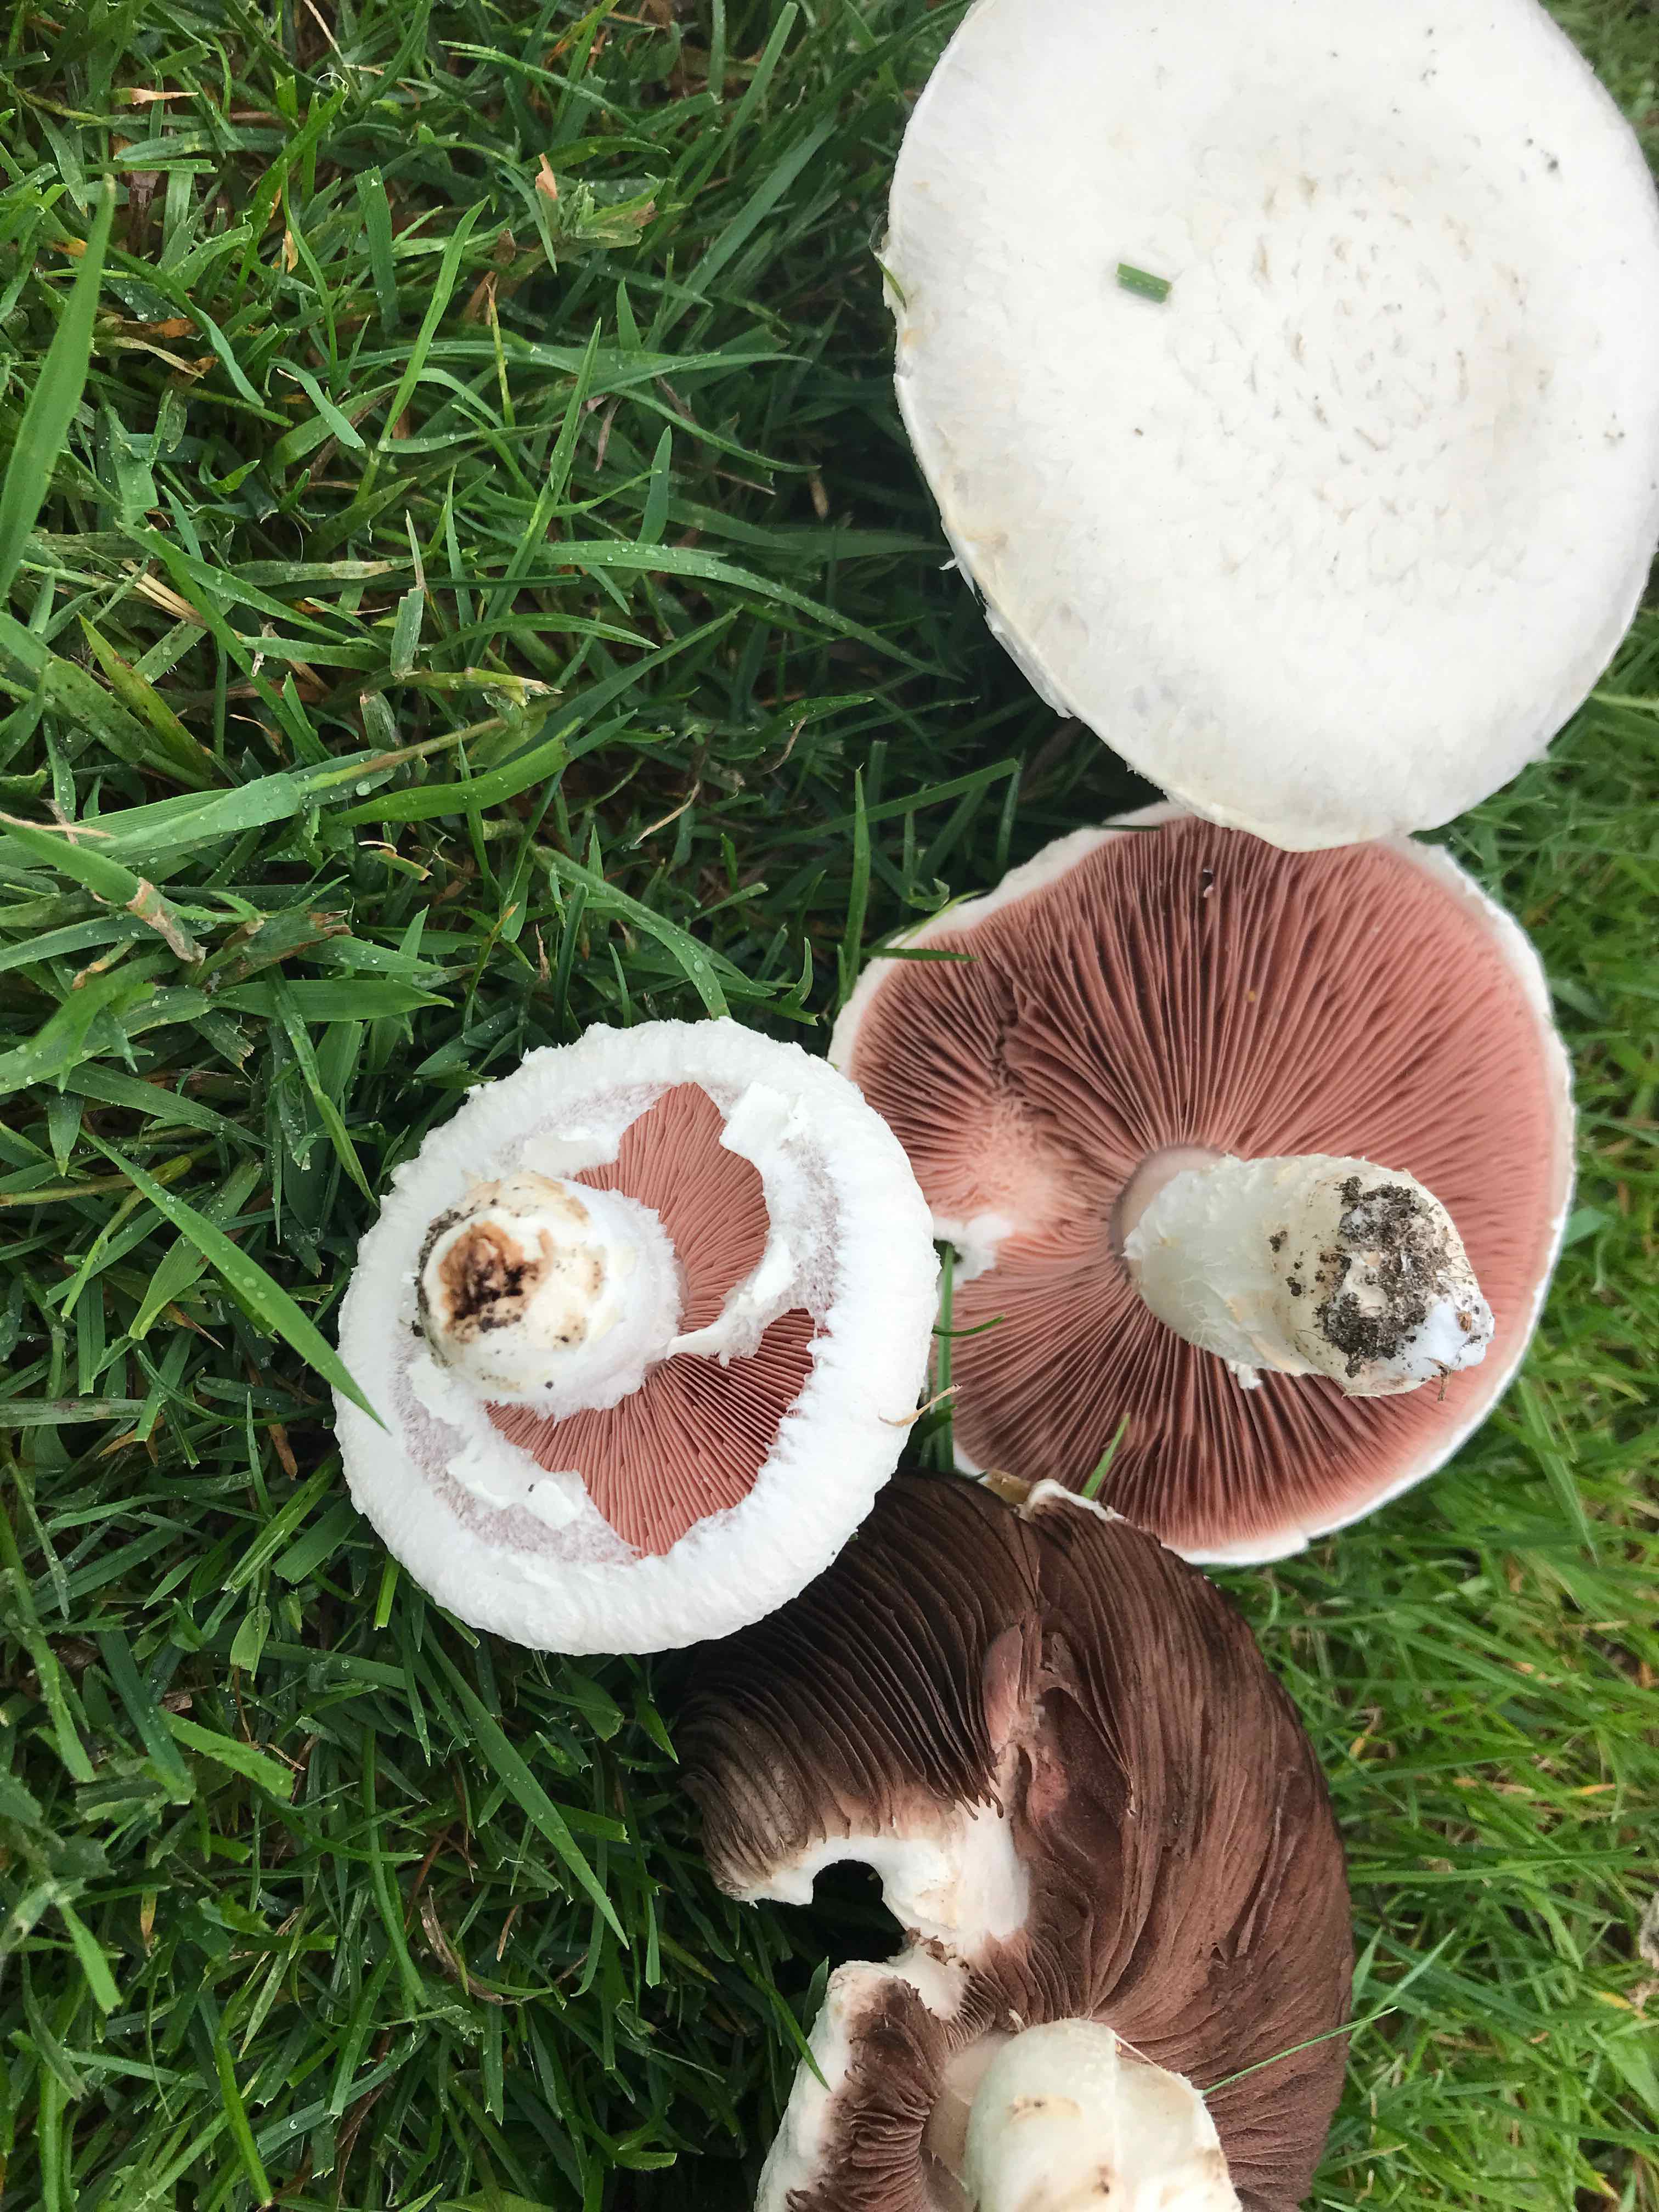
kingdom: Fungi
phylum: Basidiomycota
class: Agaricomycetes
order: Agaricales
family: Agaricaceae
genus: Agaricus
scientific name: Agaricus campestris
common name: mark-champignon
